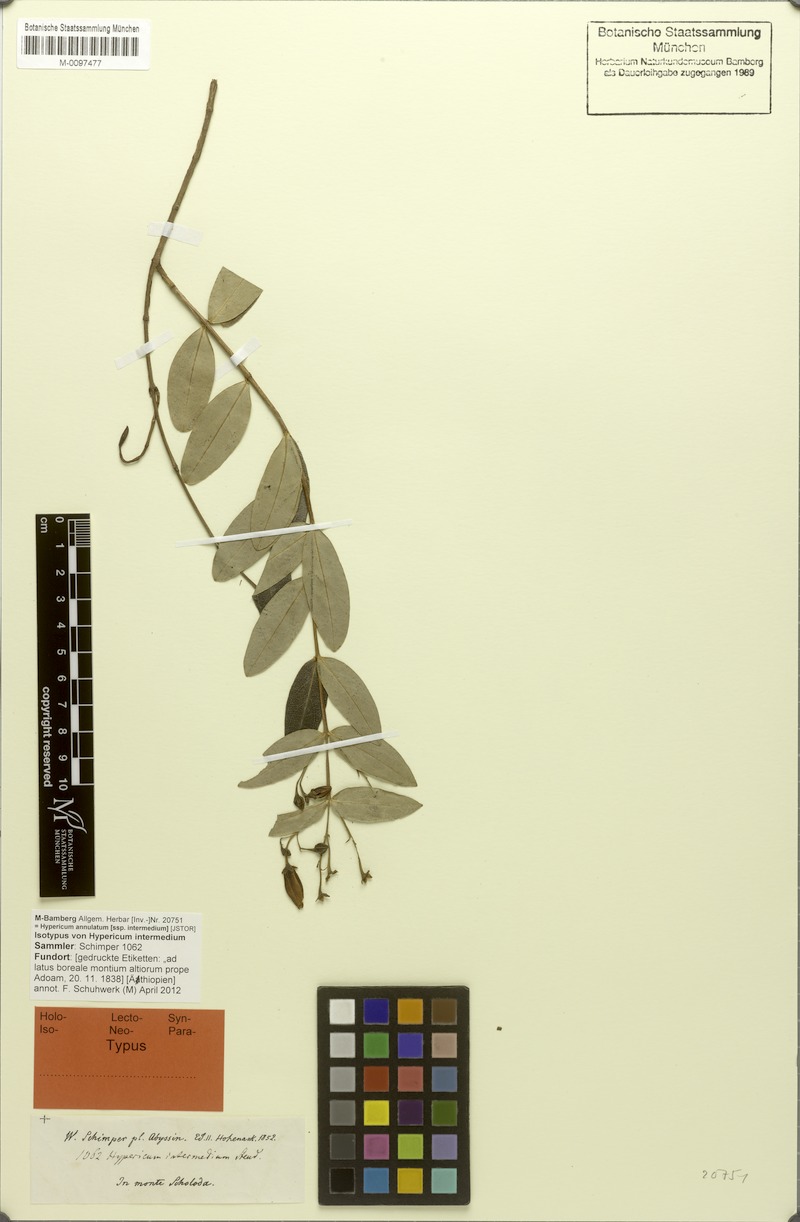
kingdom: Plantae
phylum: Tracheophyta
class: Magnoliopsida
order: Malpighiales
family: Hypericaceae
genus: Hypericum
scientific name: Hypericum annulatum
